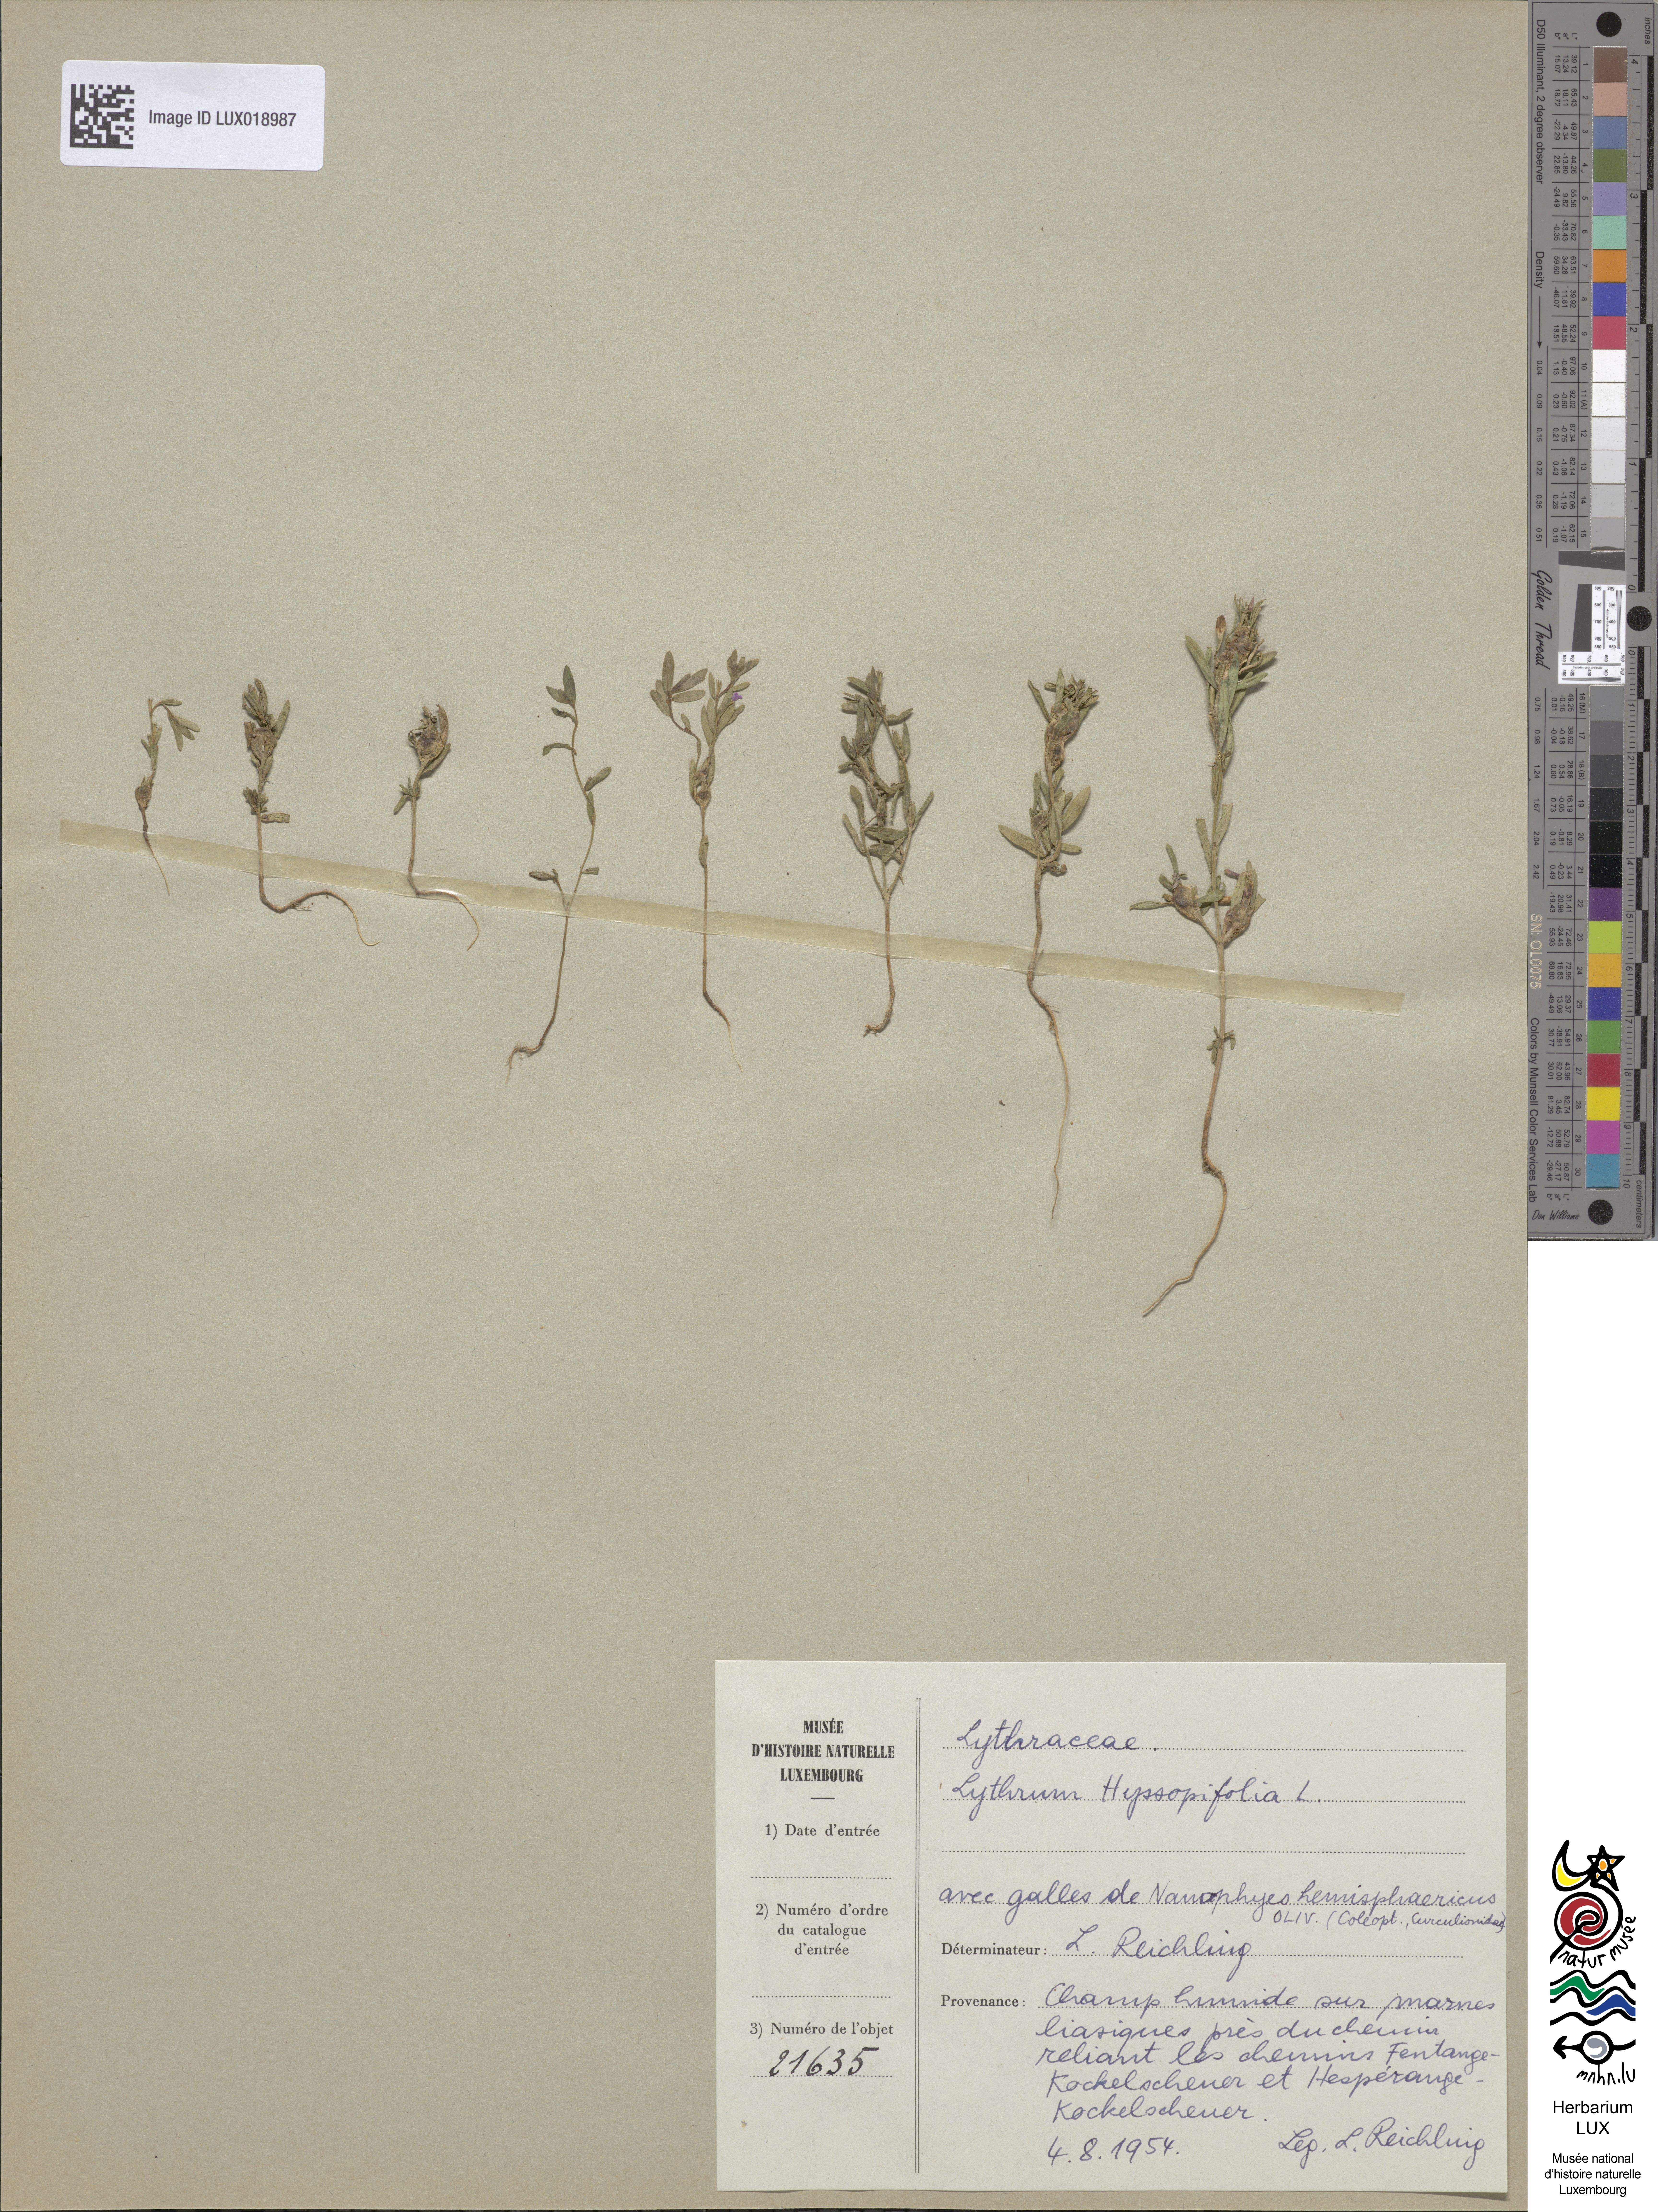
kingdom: Plantae
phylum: Tracheophyta
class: Magnoliopsida
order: Myrtales
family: Lythraceae
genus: Lythrum
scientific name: Lythrum hyssopifolia
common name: Grass-poly
